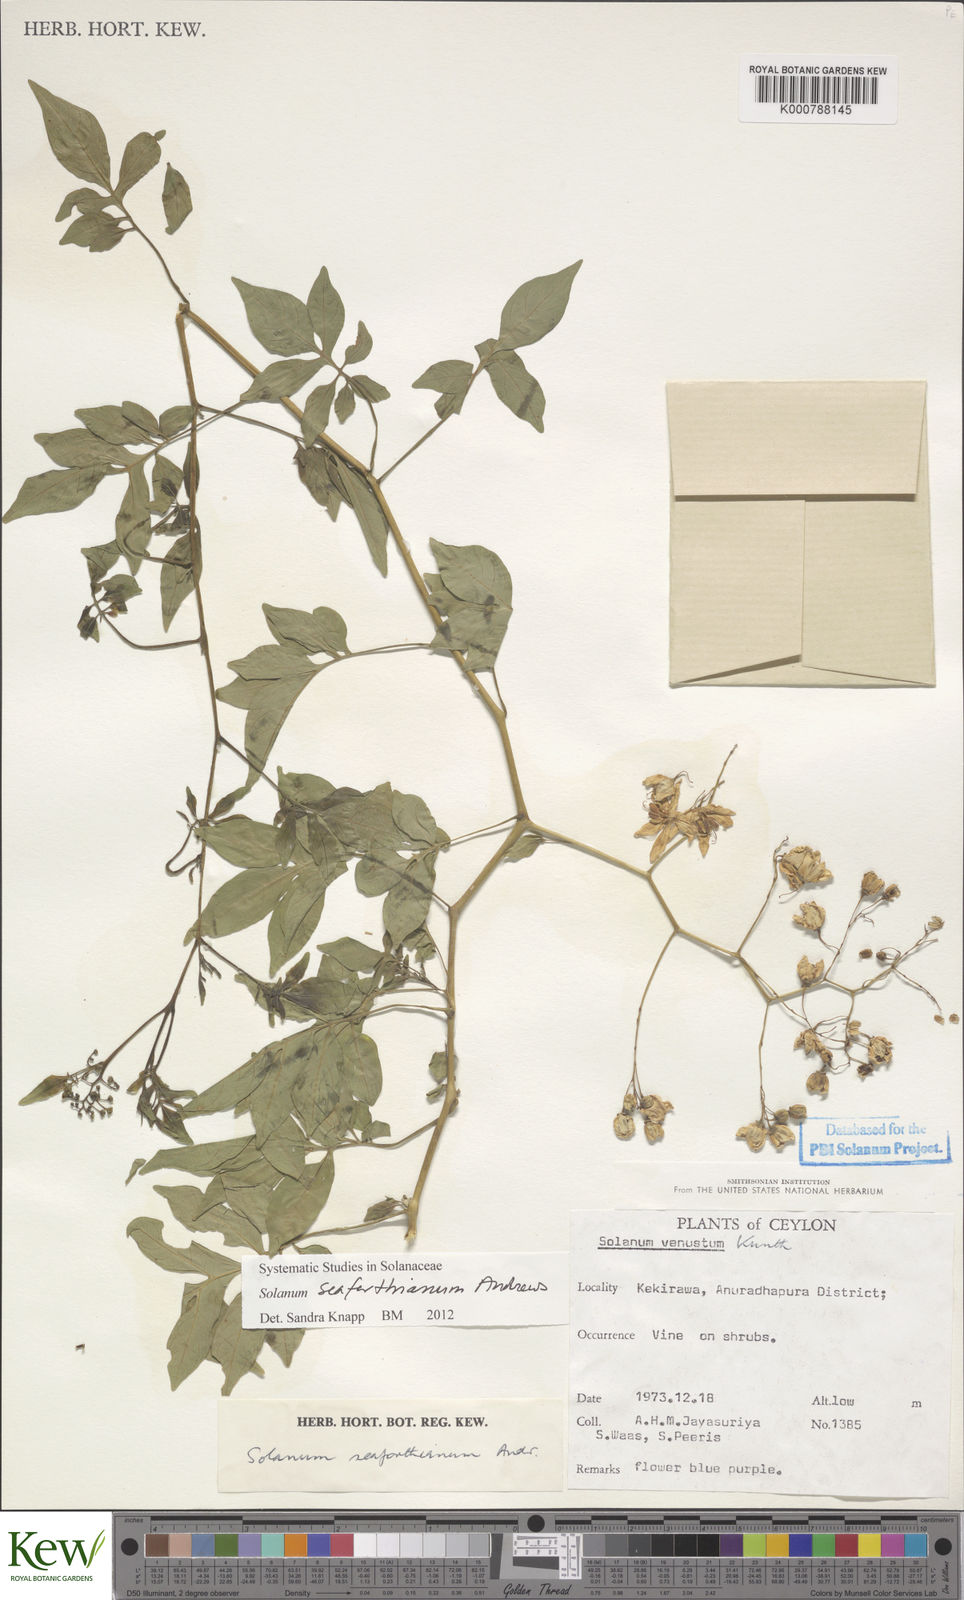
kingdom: Plantae
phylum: Tracheophyta
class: Magnoliopsida
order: Solanales
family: Solanaceae
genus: Solanum
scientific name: Solanum seaforthianum
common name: Brazilian nightshade
